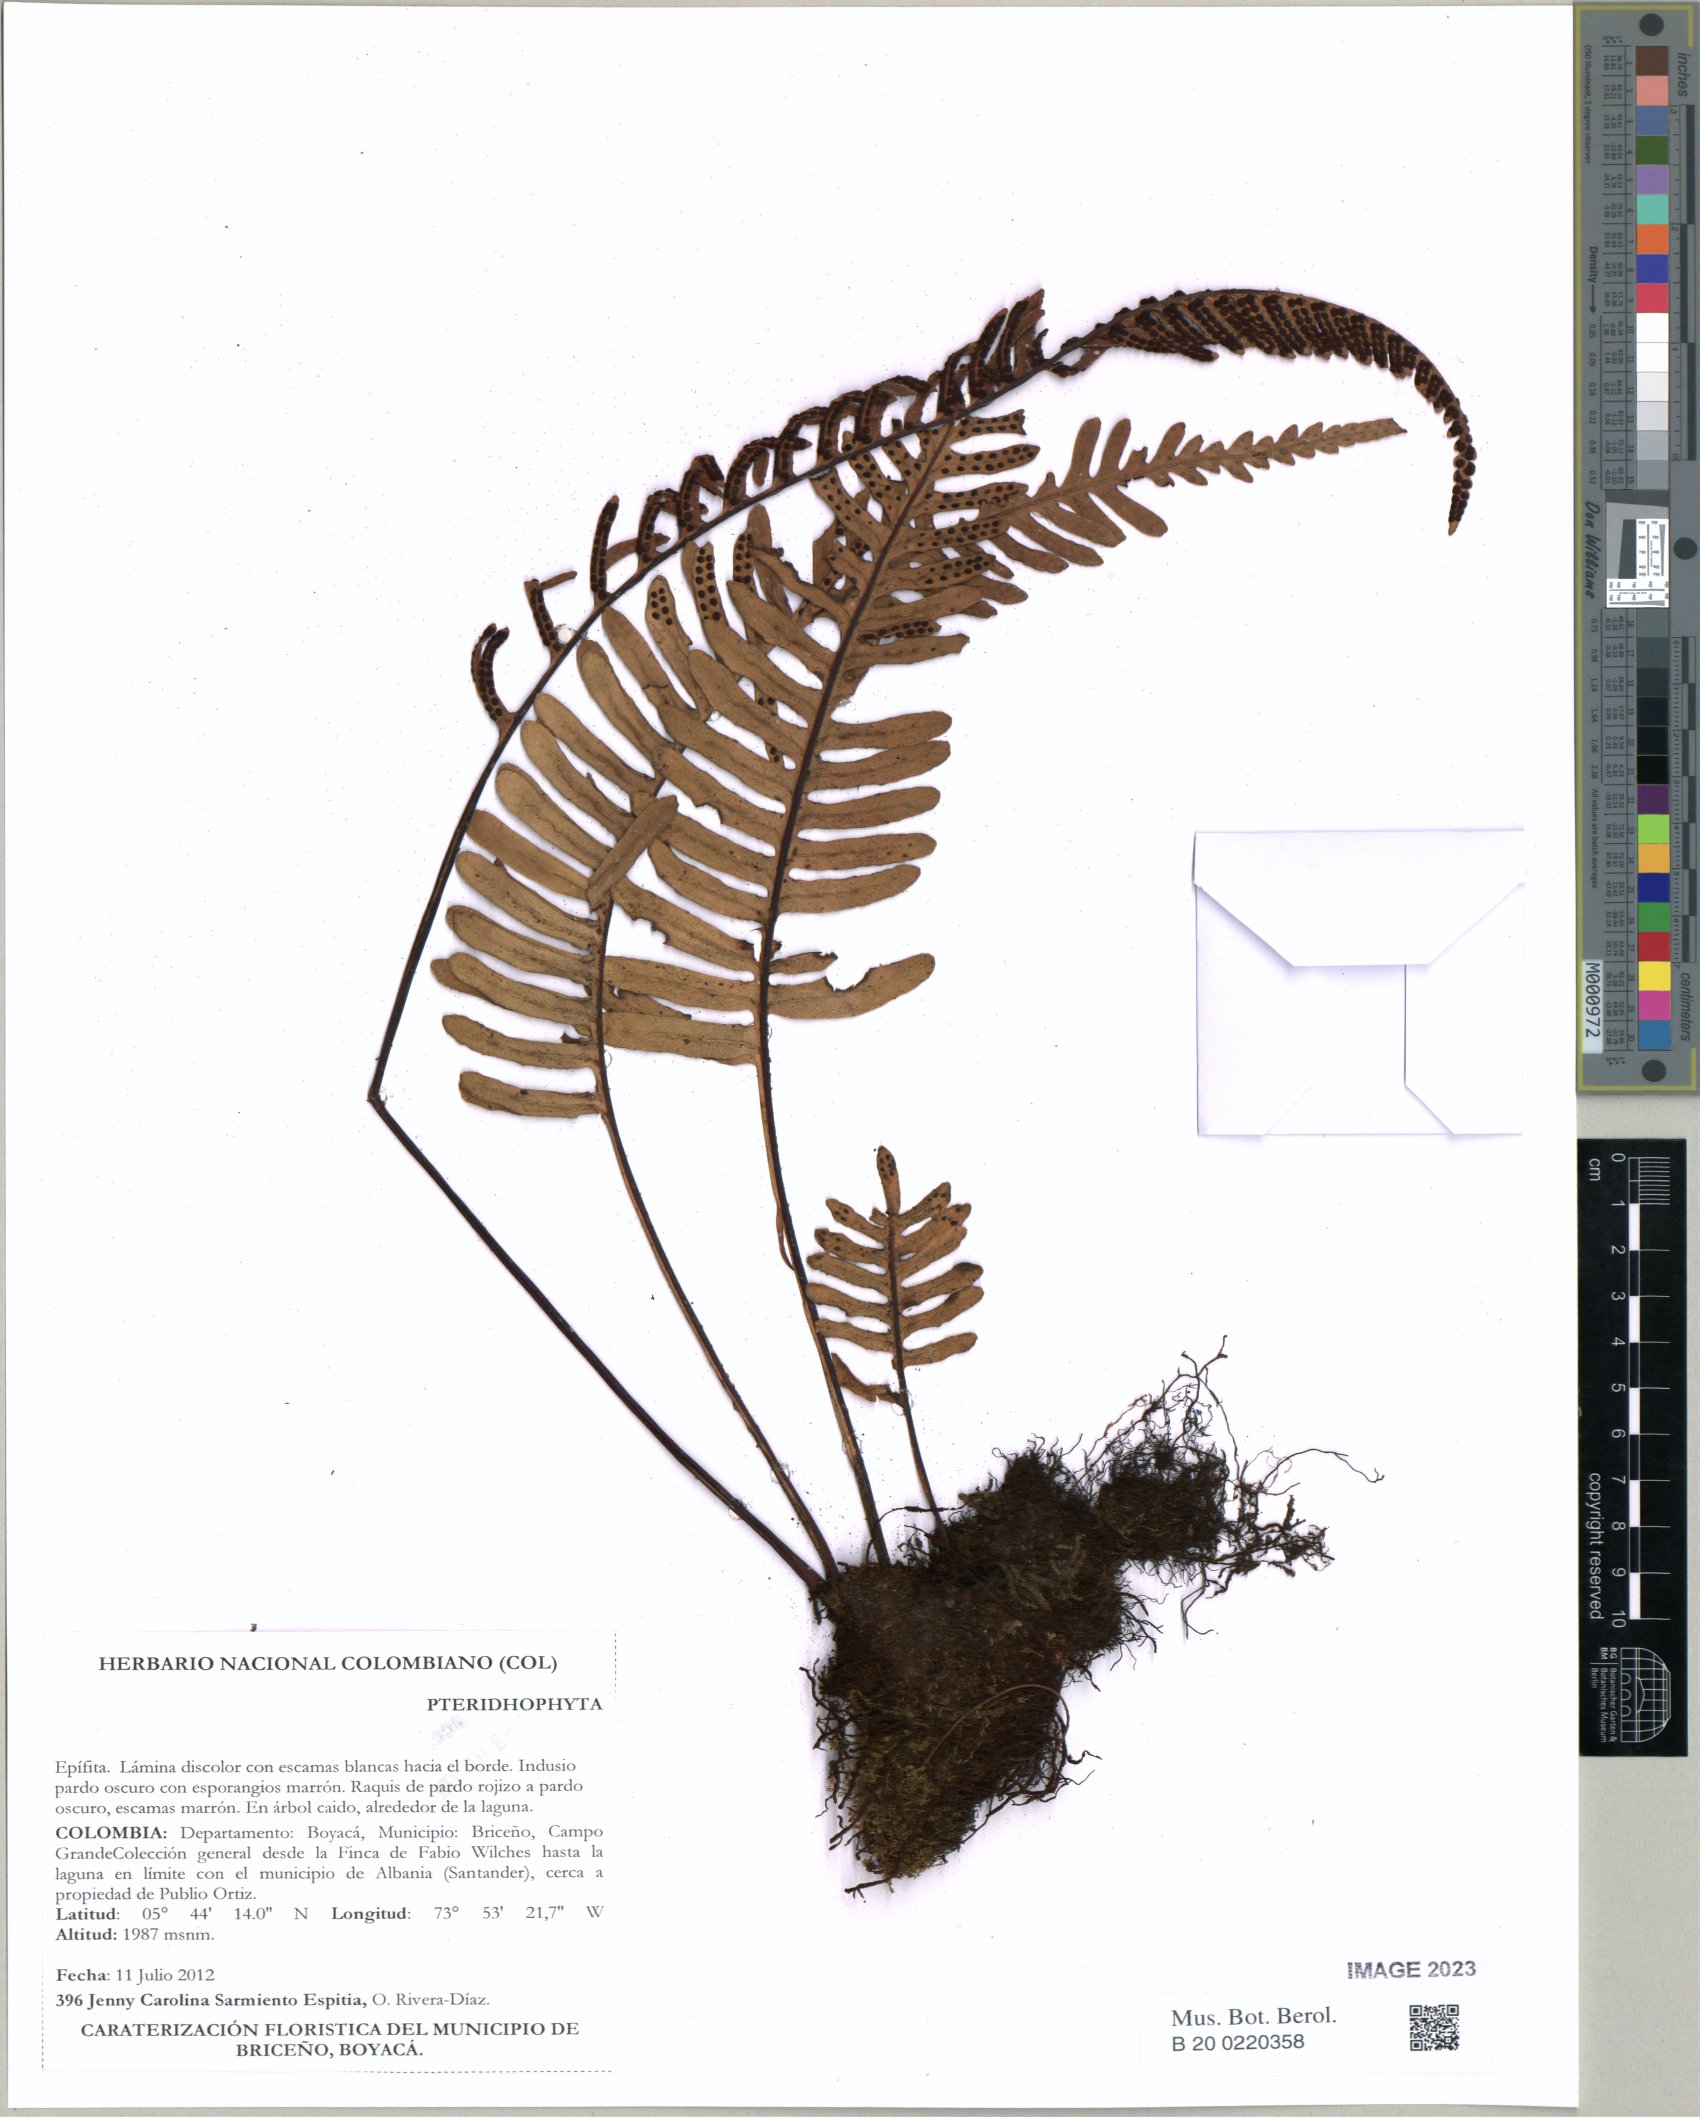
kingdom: Plantae
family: Pteridophyta
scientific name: Pteridophyta
